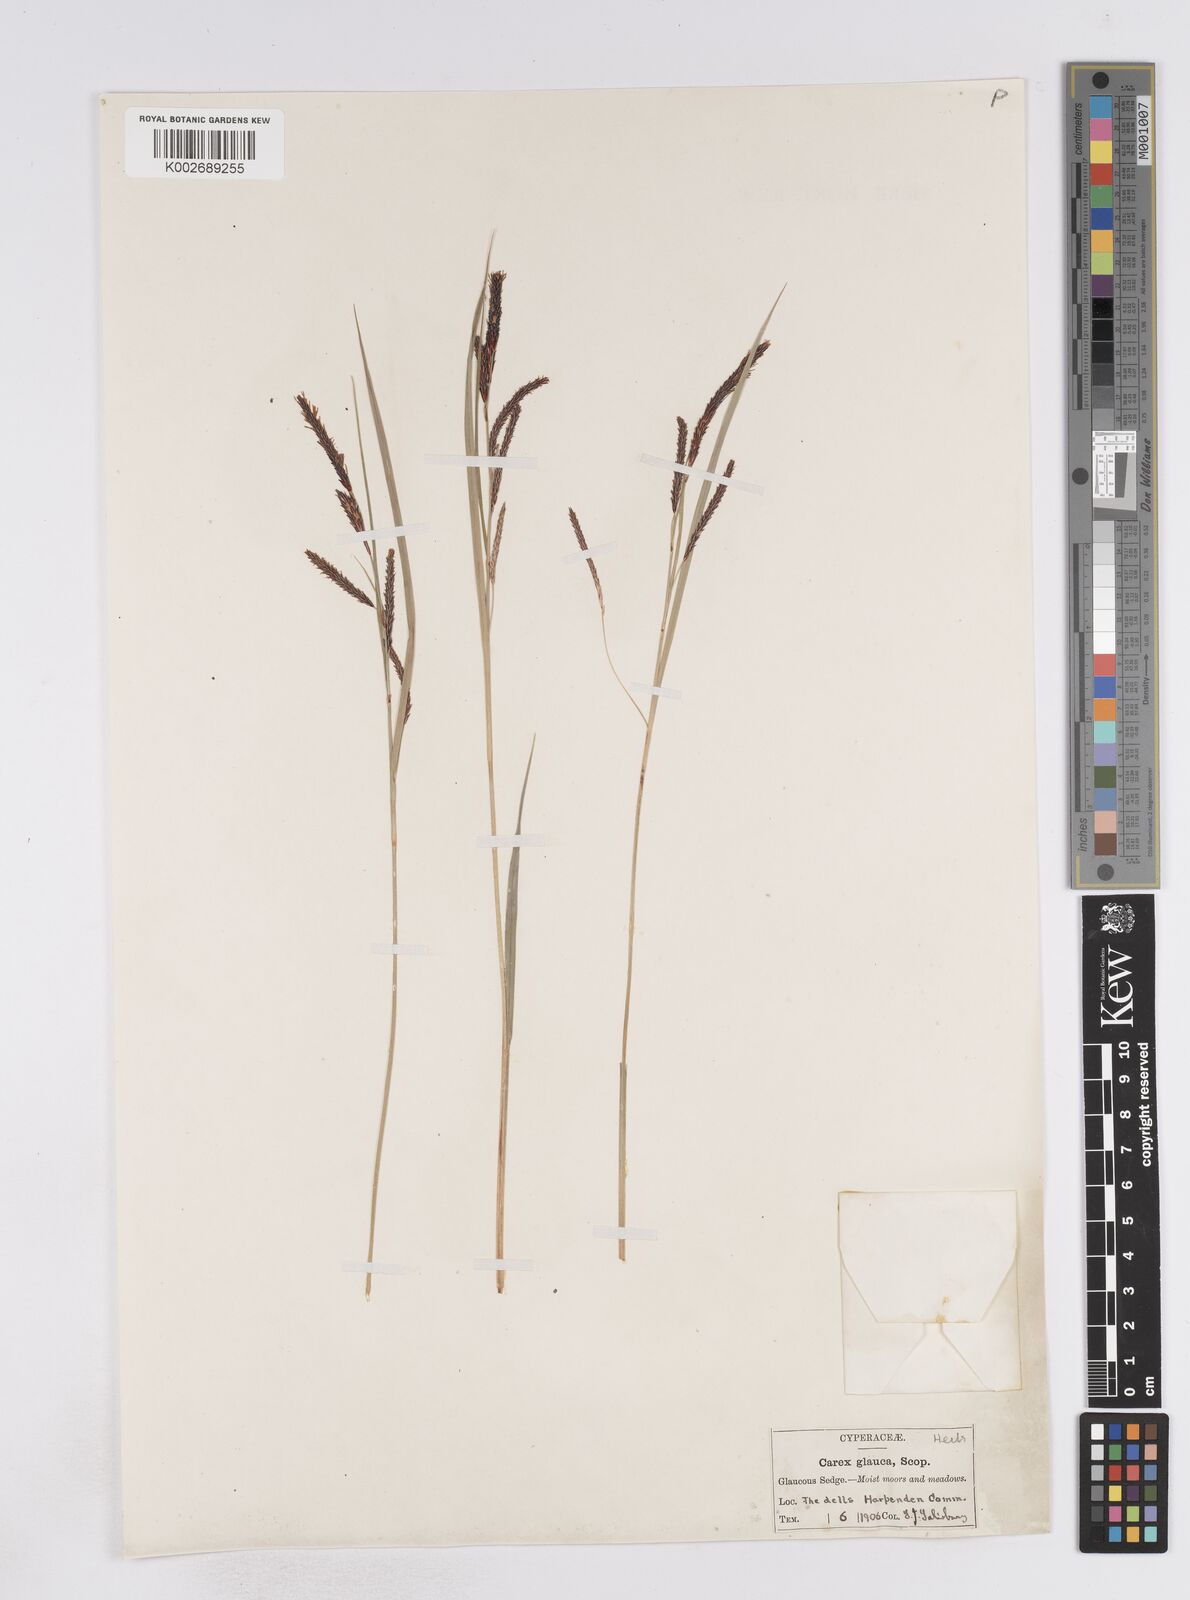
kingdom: Plantae
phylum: Tracheophyta
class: Liliopsida
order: Poales
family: Cyperaceae
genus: Carex
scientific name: Carex flacca
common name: Glaucous sedge
